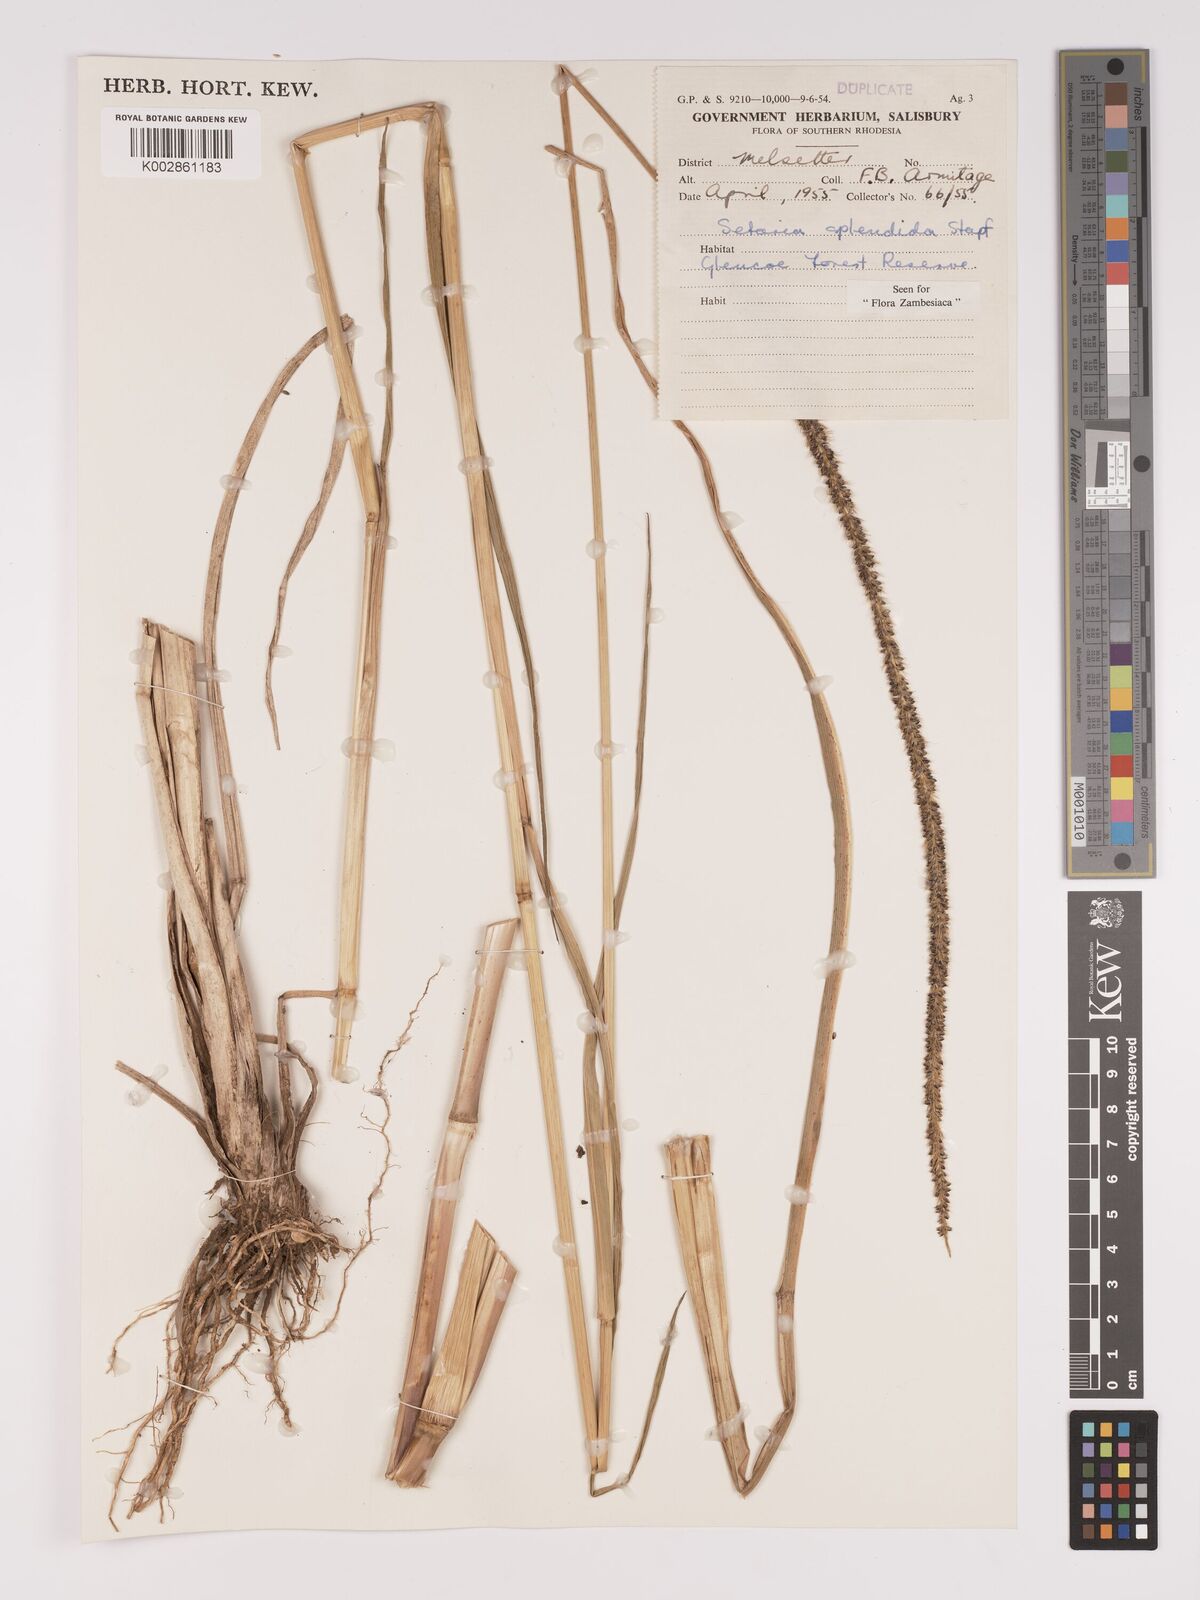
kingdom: Plantae
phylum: Tracheophyta
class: Liliopsida
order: Poales
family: Poaceae
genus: Setaria
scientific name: Setaria sphacelata
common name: African bristlegrass
